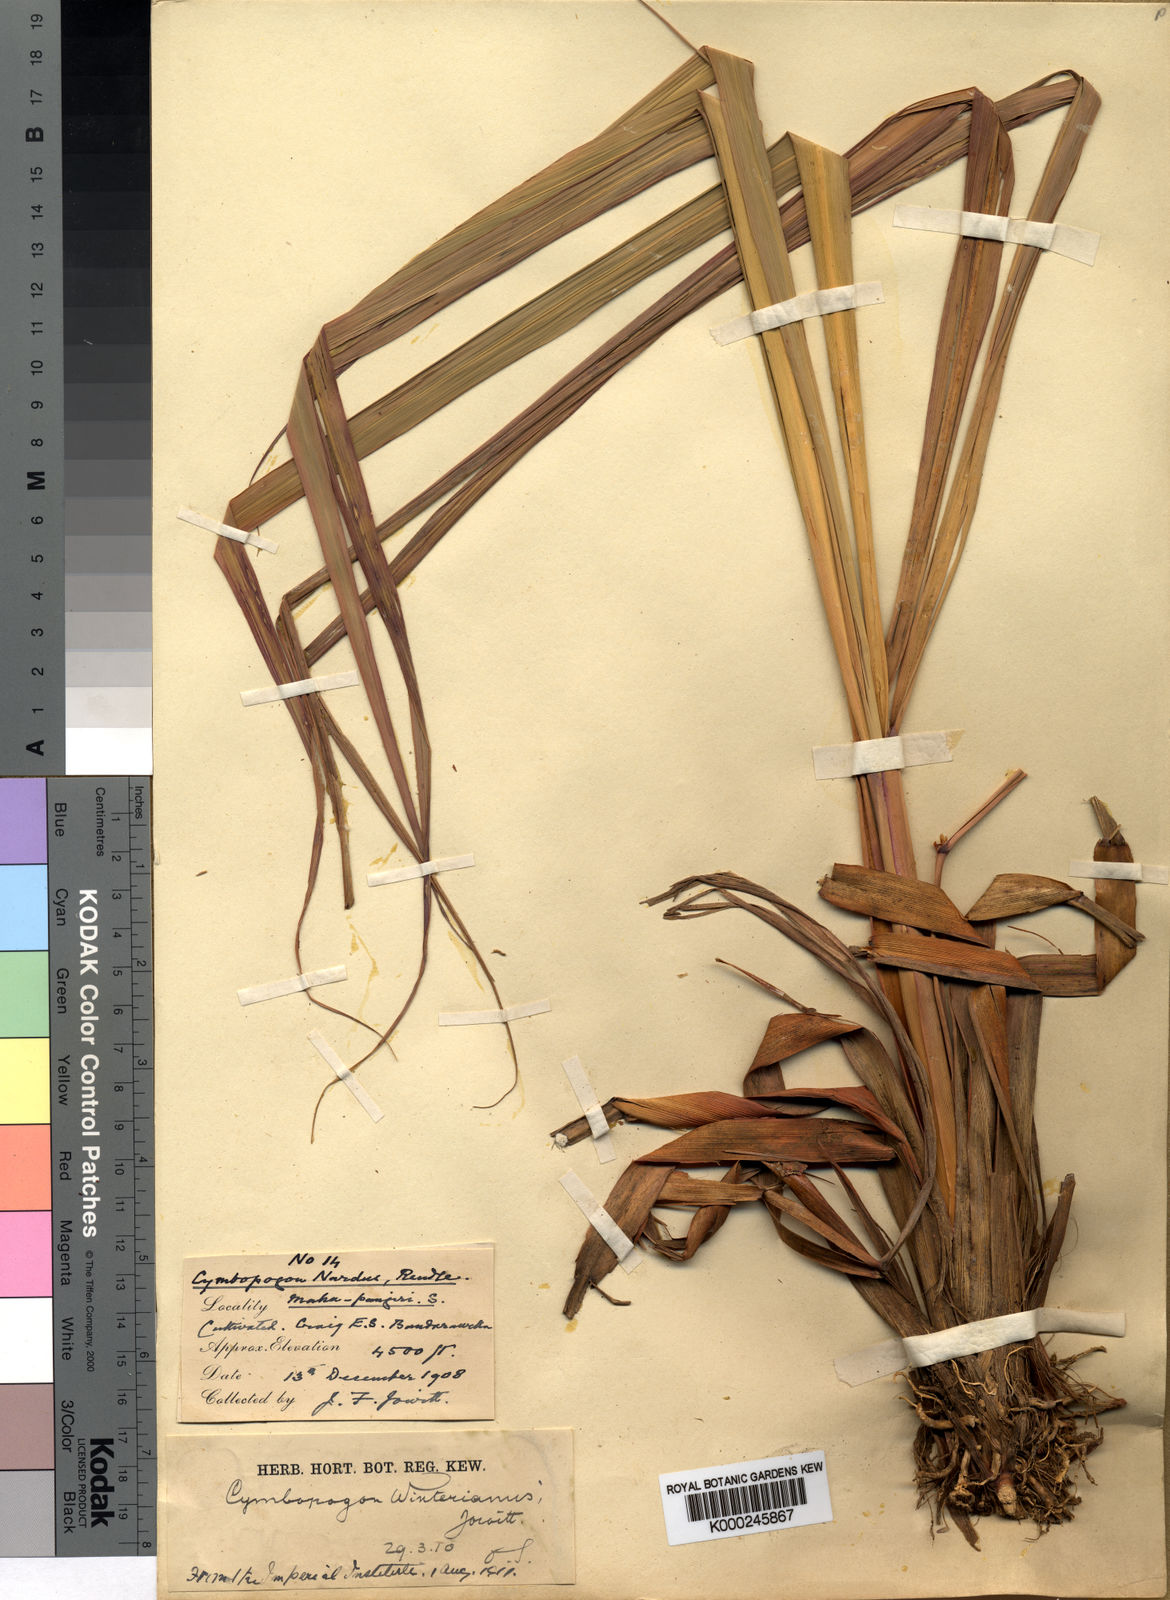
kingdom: Plantae
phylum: Tracheophyta
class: Liliopsida
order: Poales
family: Poaceae
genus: Cymbopogon
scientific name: Cymbopogon winterianus
